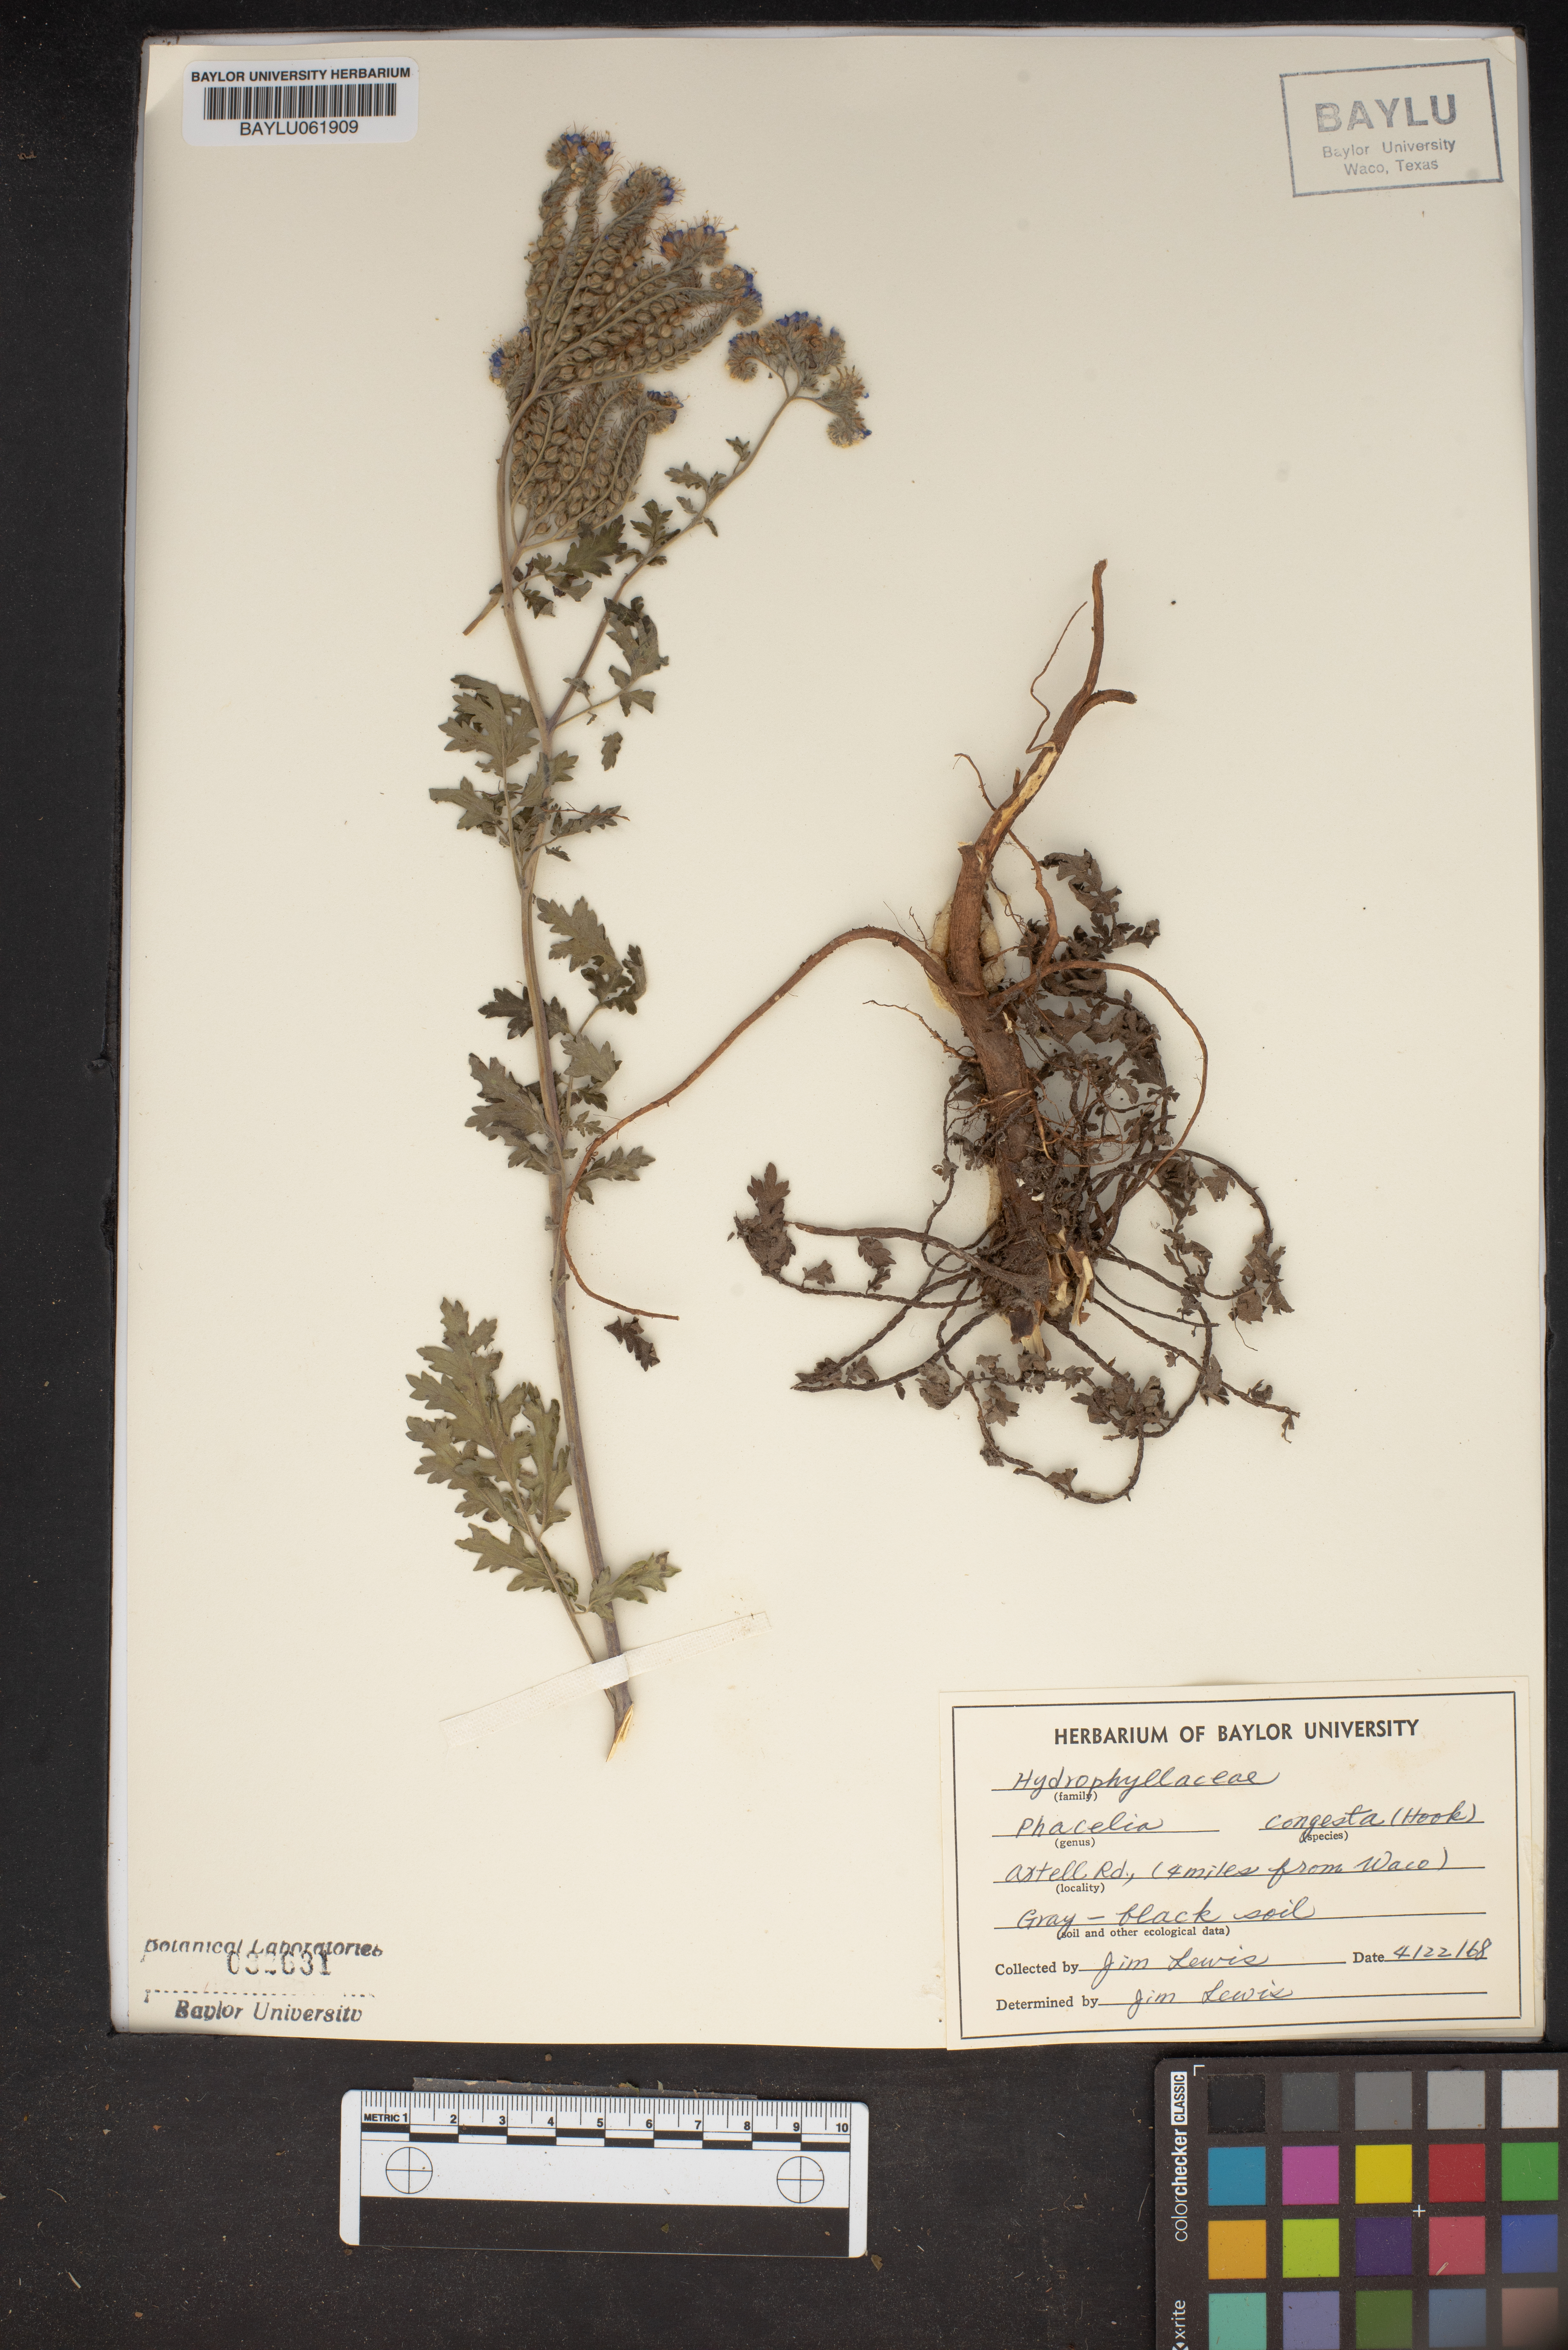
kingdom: Plantae
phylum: Tracheophyta
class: Magnoliopsida
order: Boraginales
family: Hydrophyllaceae
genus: Phacelia
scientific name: Phacelia congesta
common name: Blue curls
